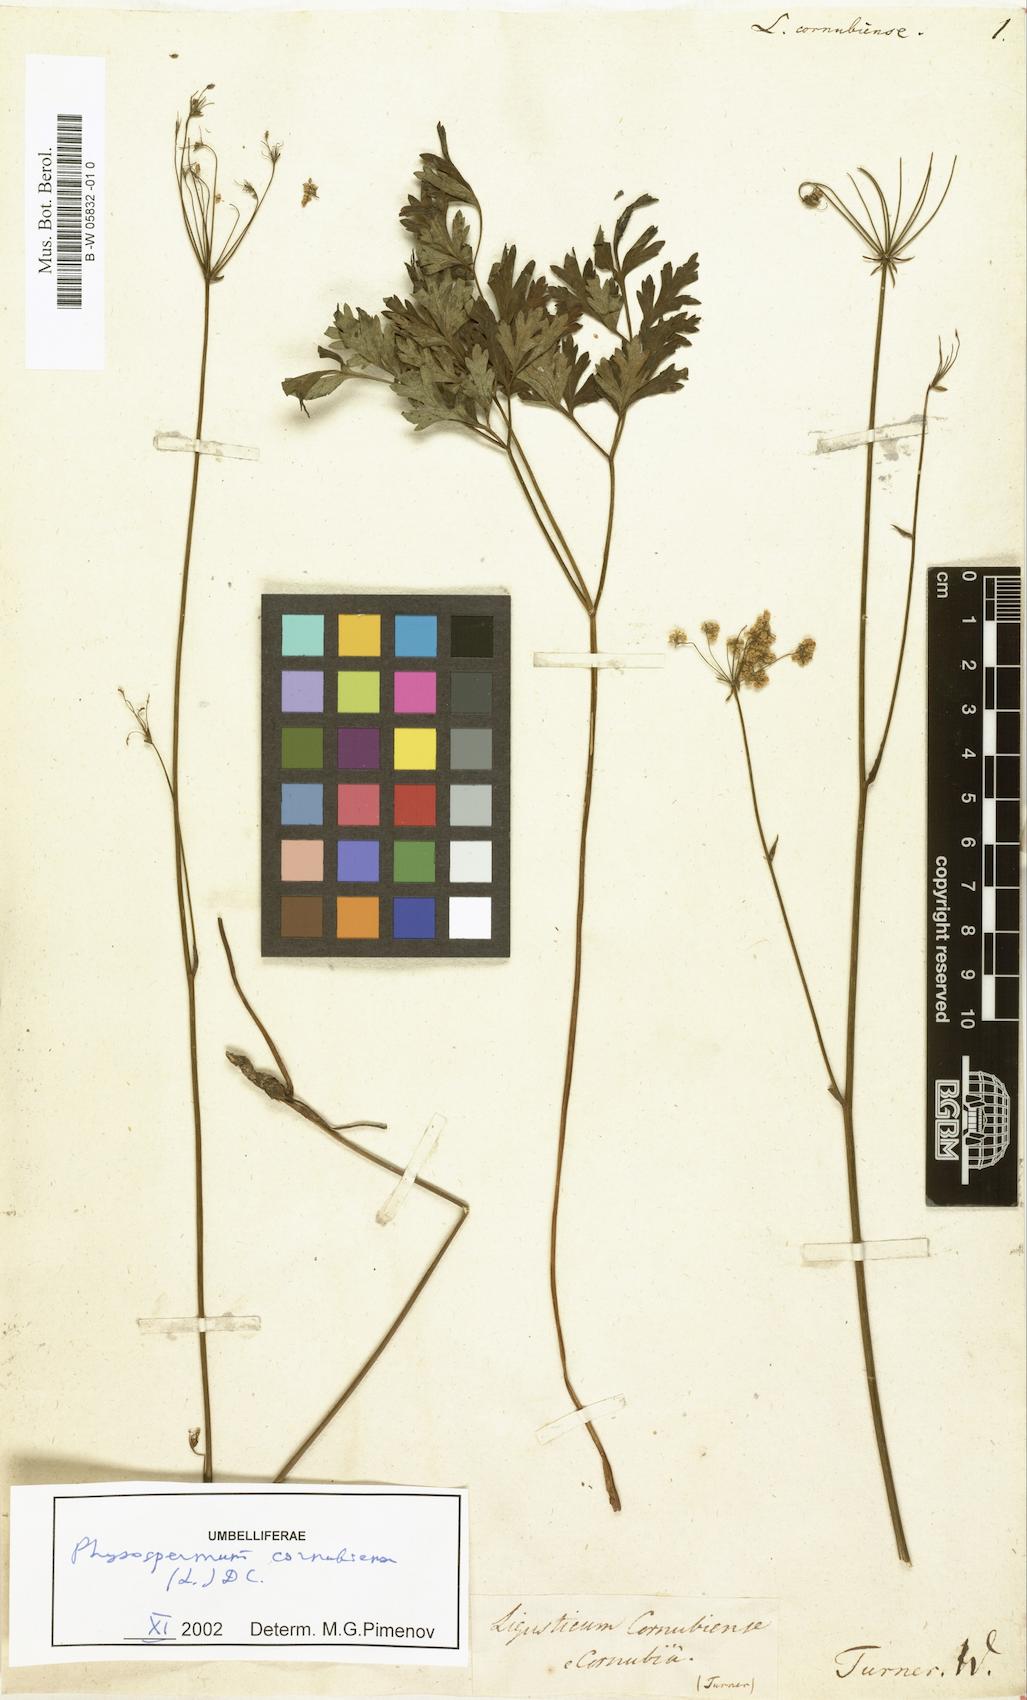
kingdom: Plantae
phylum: Tracheophyta
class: Magnoliopsida
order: Apiales
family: Apiaceae
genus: Physospermum
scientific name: Physospermum cornubiense
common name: Bladderseed
